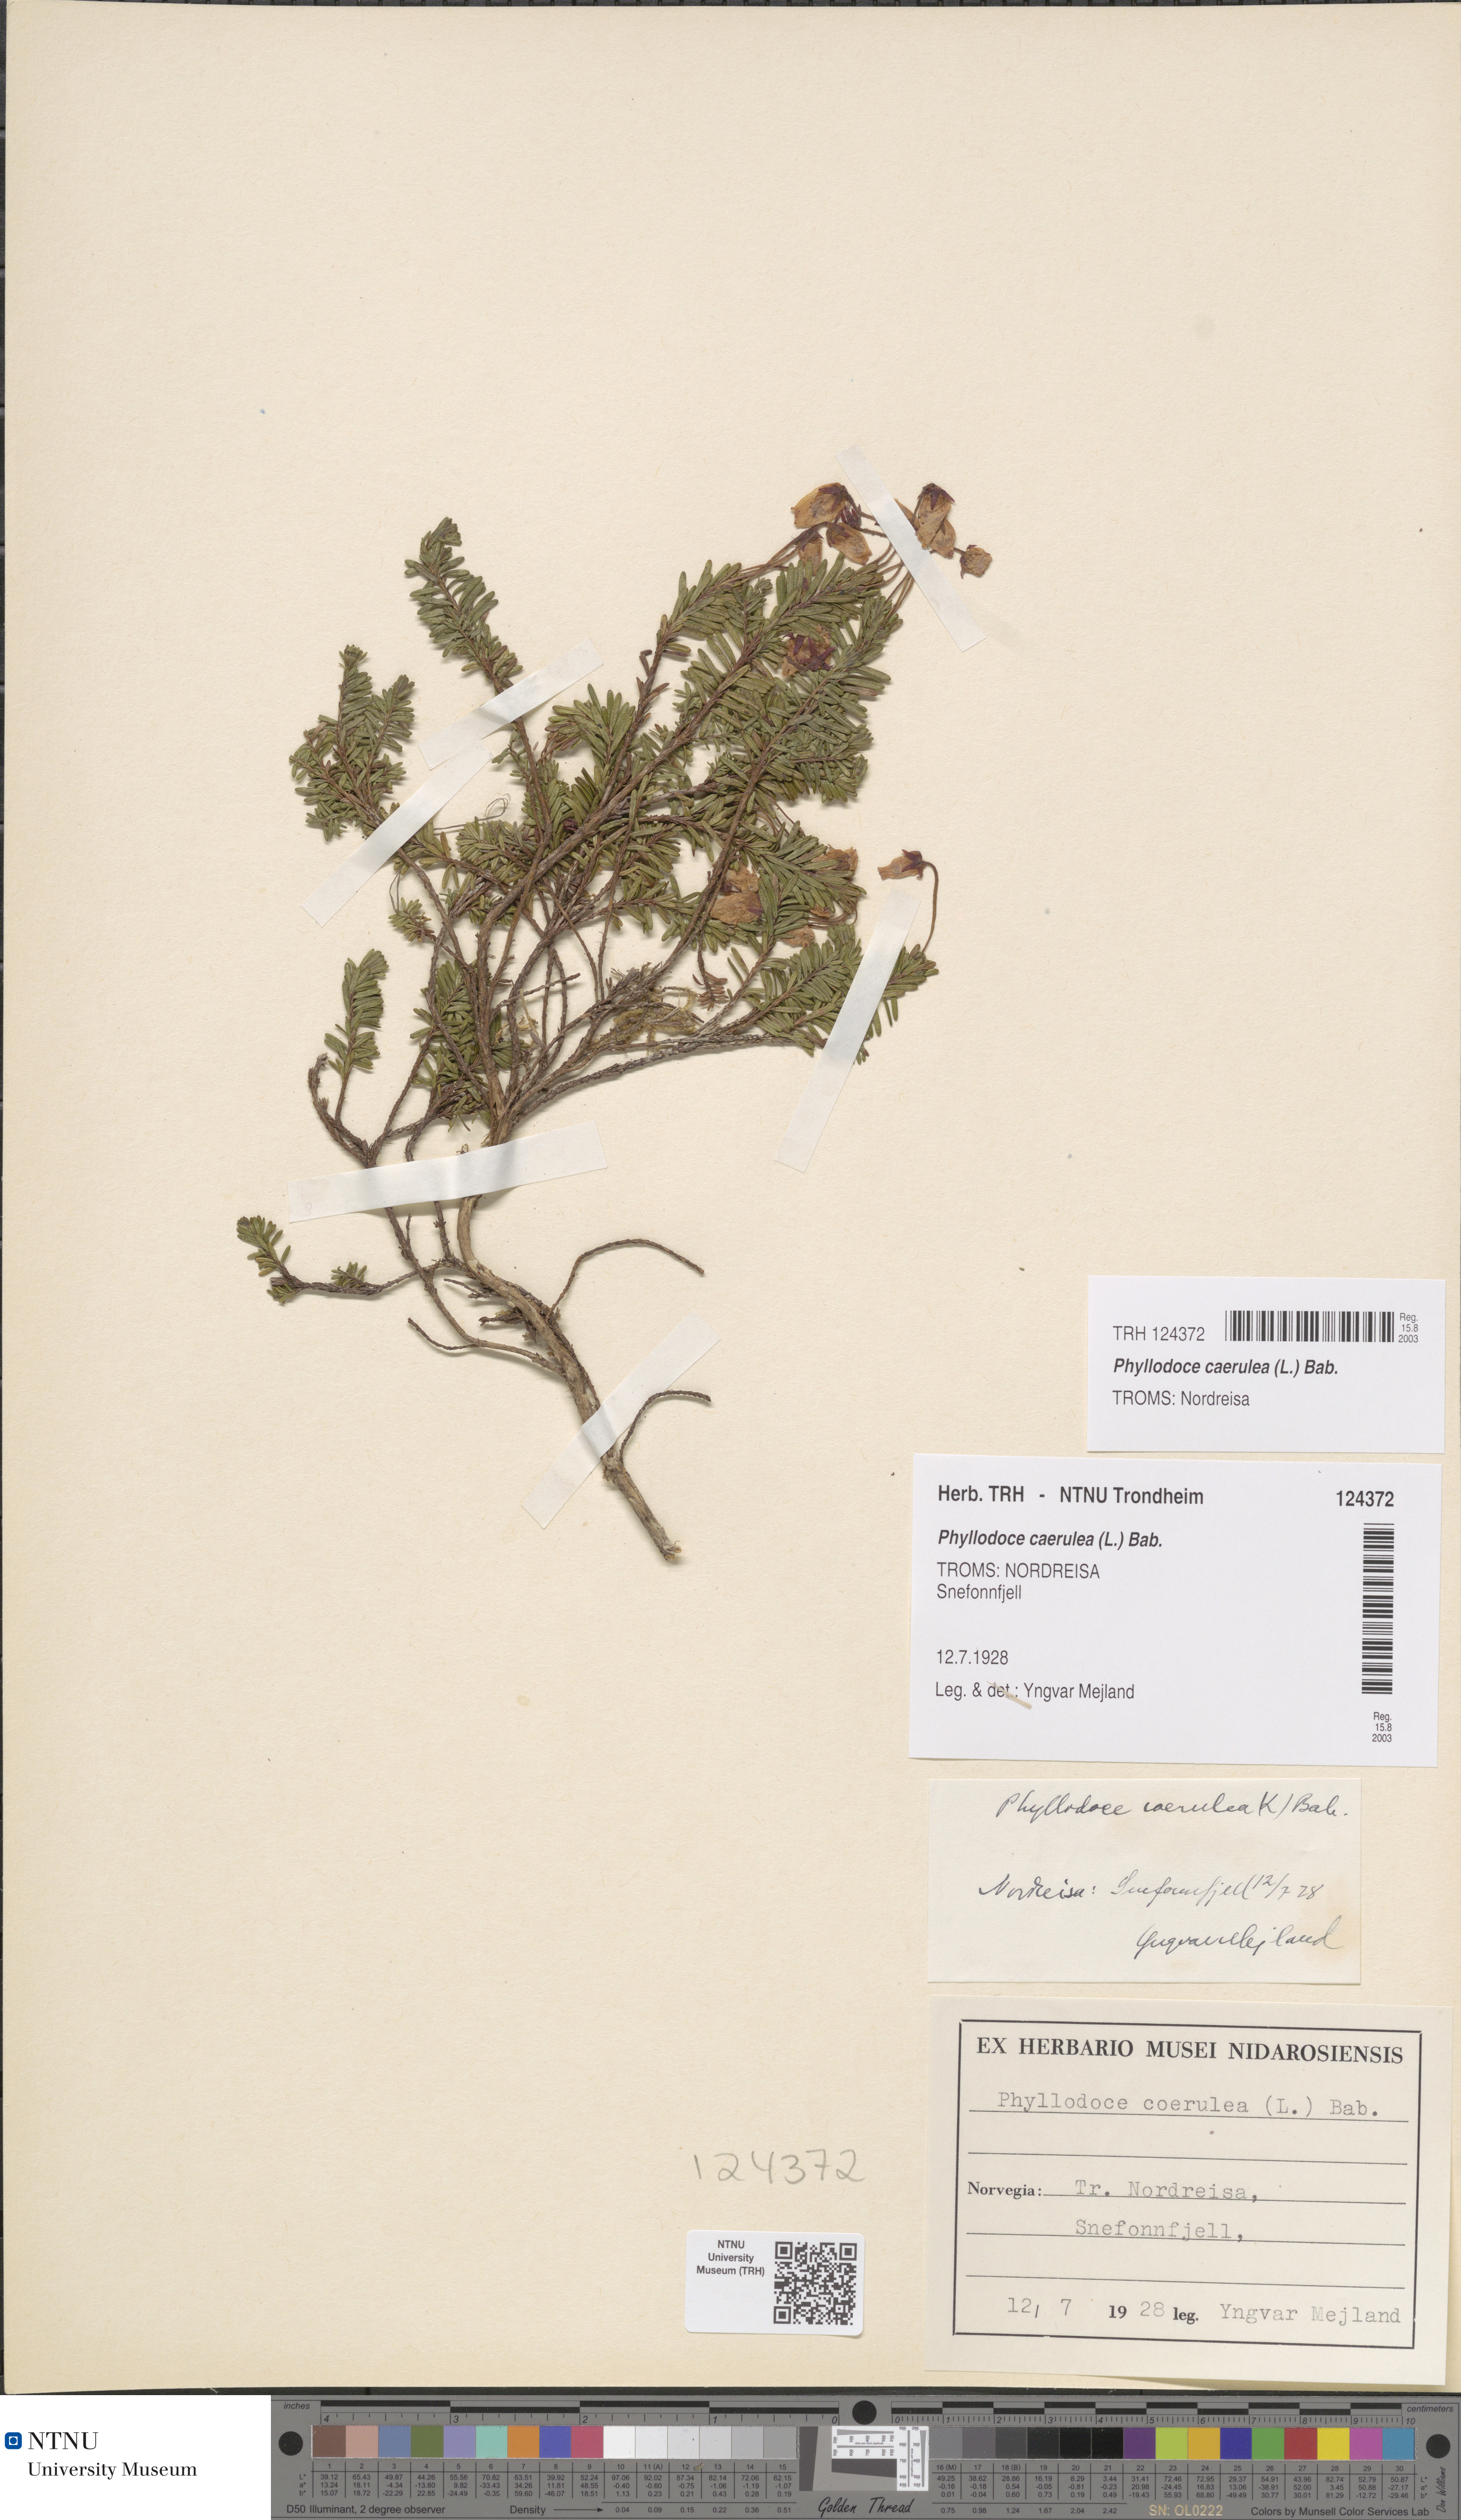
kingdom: Plantae
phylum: Tracheophyta
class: Magnoliopsida
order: Ericales
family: Ericaceae
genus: Phyllodoce
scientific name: Phyllodoce caerulea
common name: Blue heath
